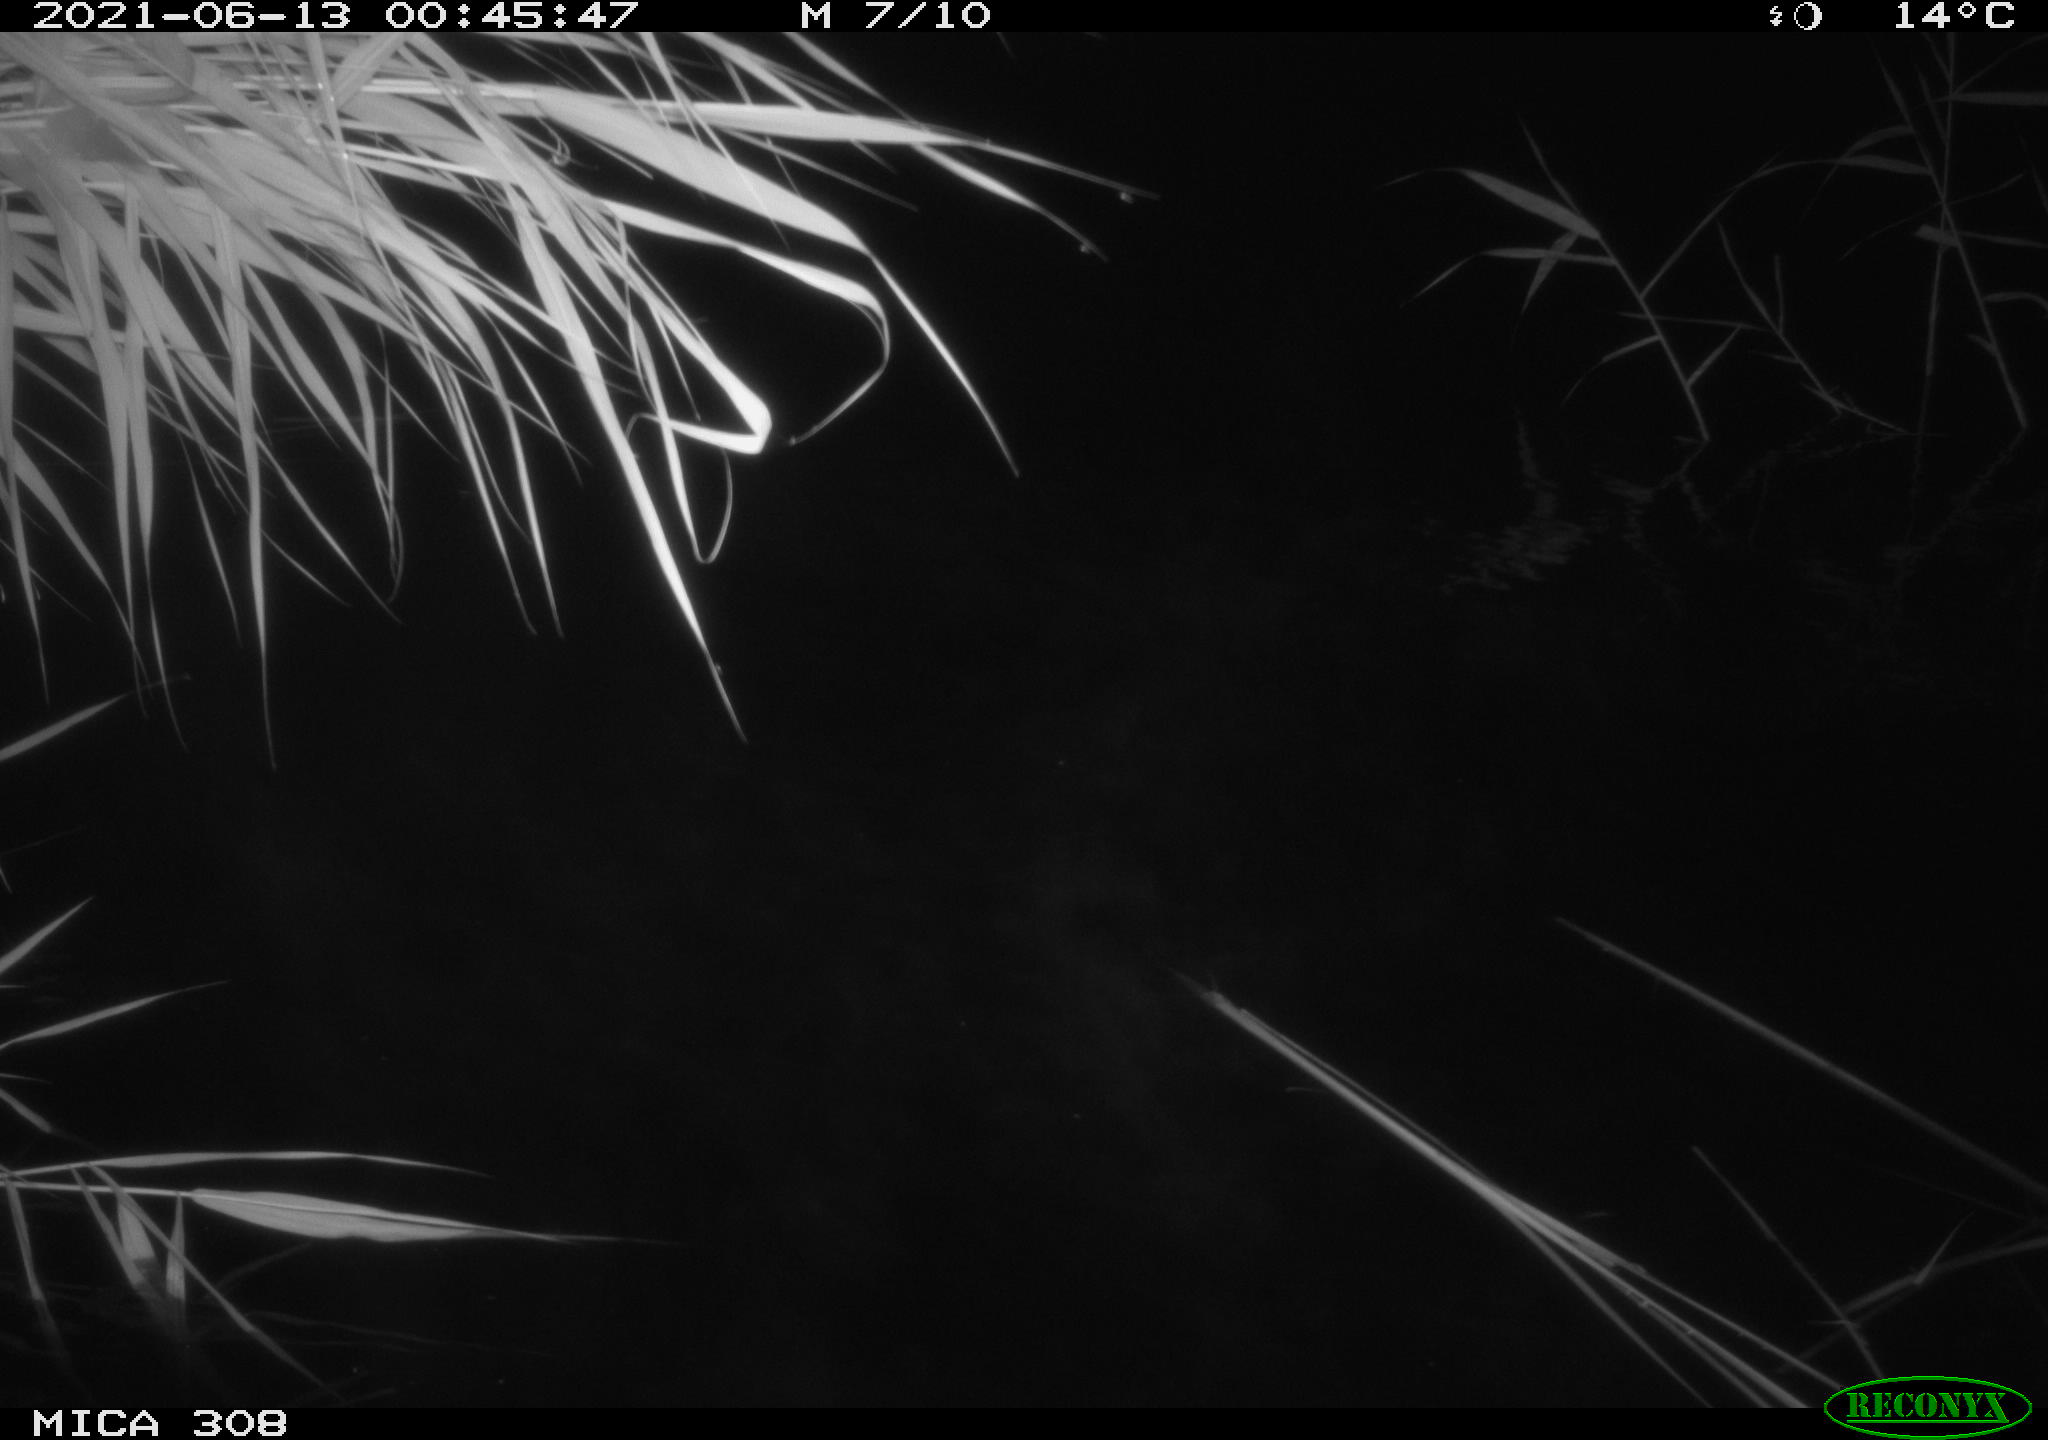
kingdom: Animalia
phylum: Chordata
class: Aves
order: Gruiformes
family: Rallidae
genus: Gallinula
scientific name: Gallinula chloropus
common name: Common moorhen
